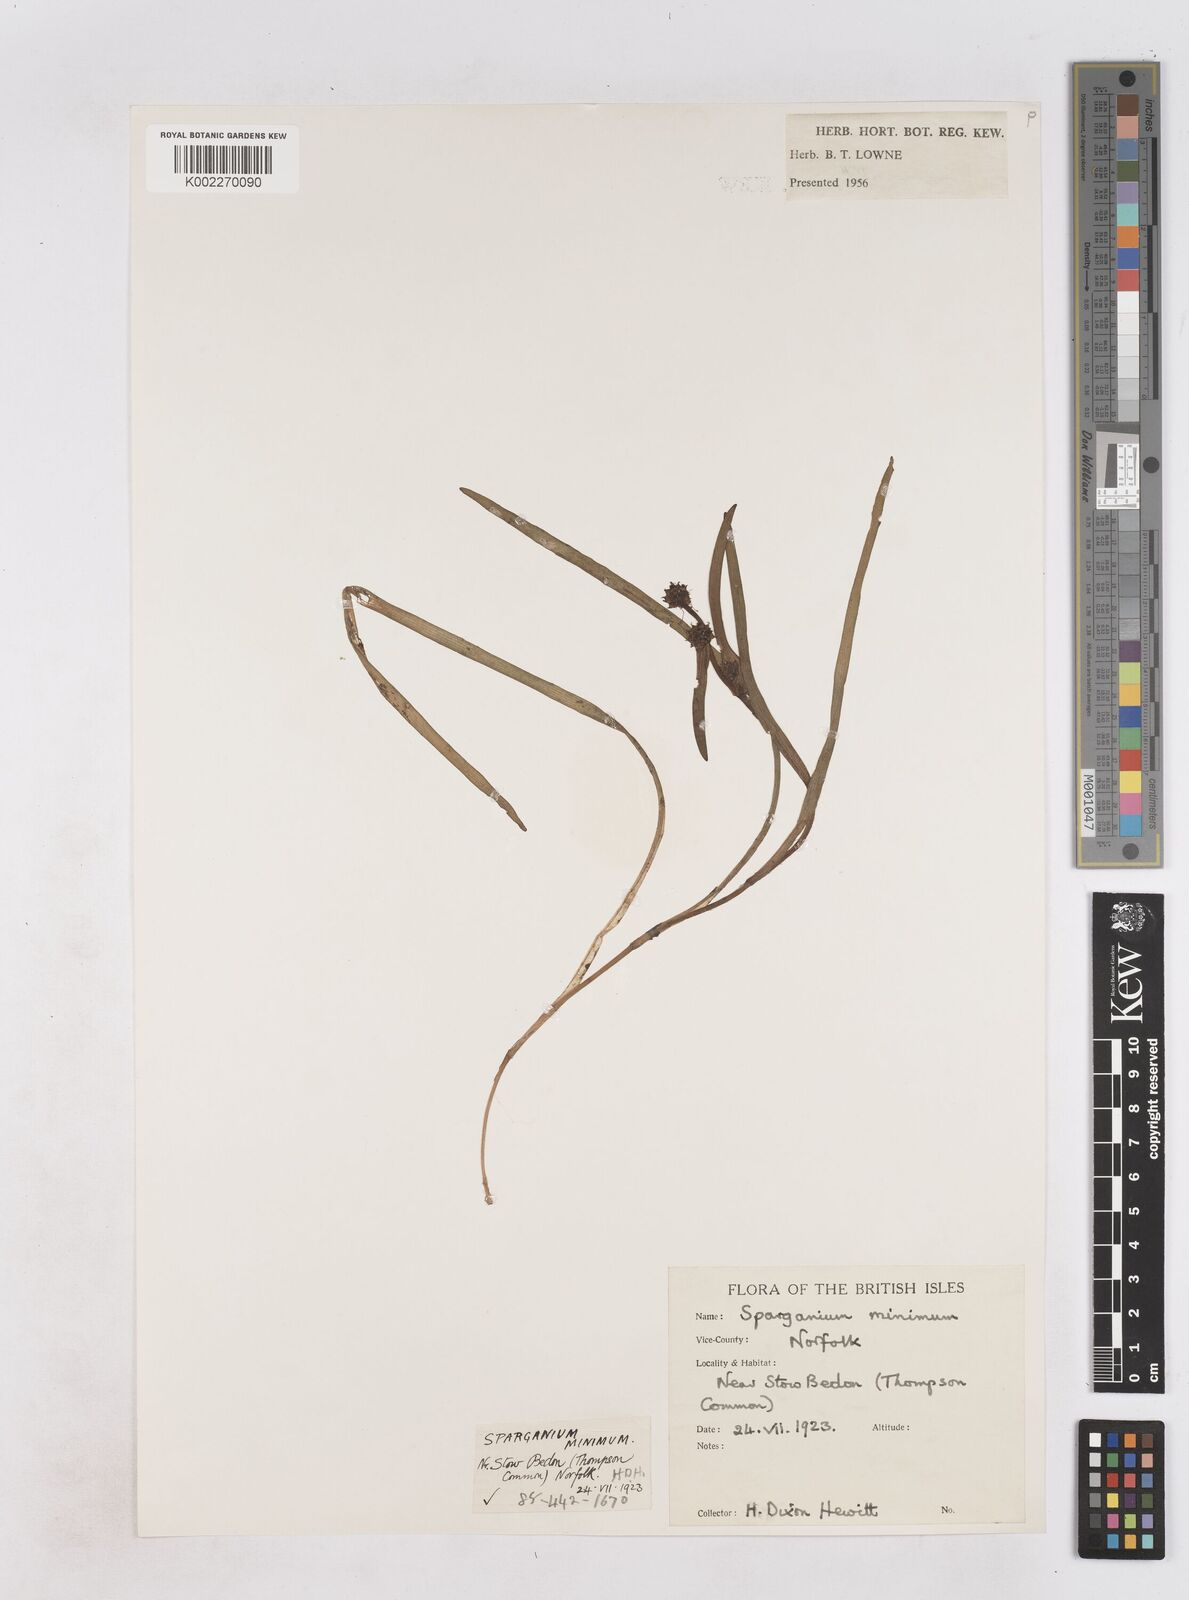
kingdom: Plantae
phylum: Tracheophyta
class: Liliopsida
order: Poales
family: Typhaceae
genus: Sparganium
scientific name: Sparganium natans
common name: Least bur-reed
